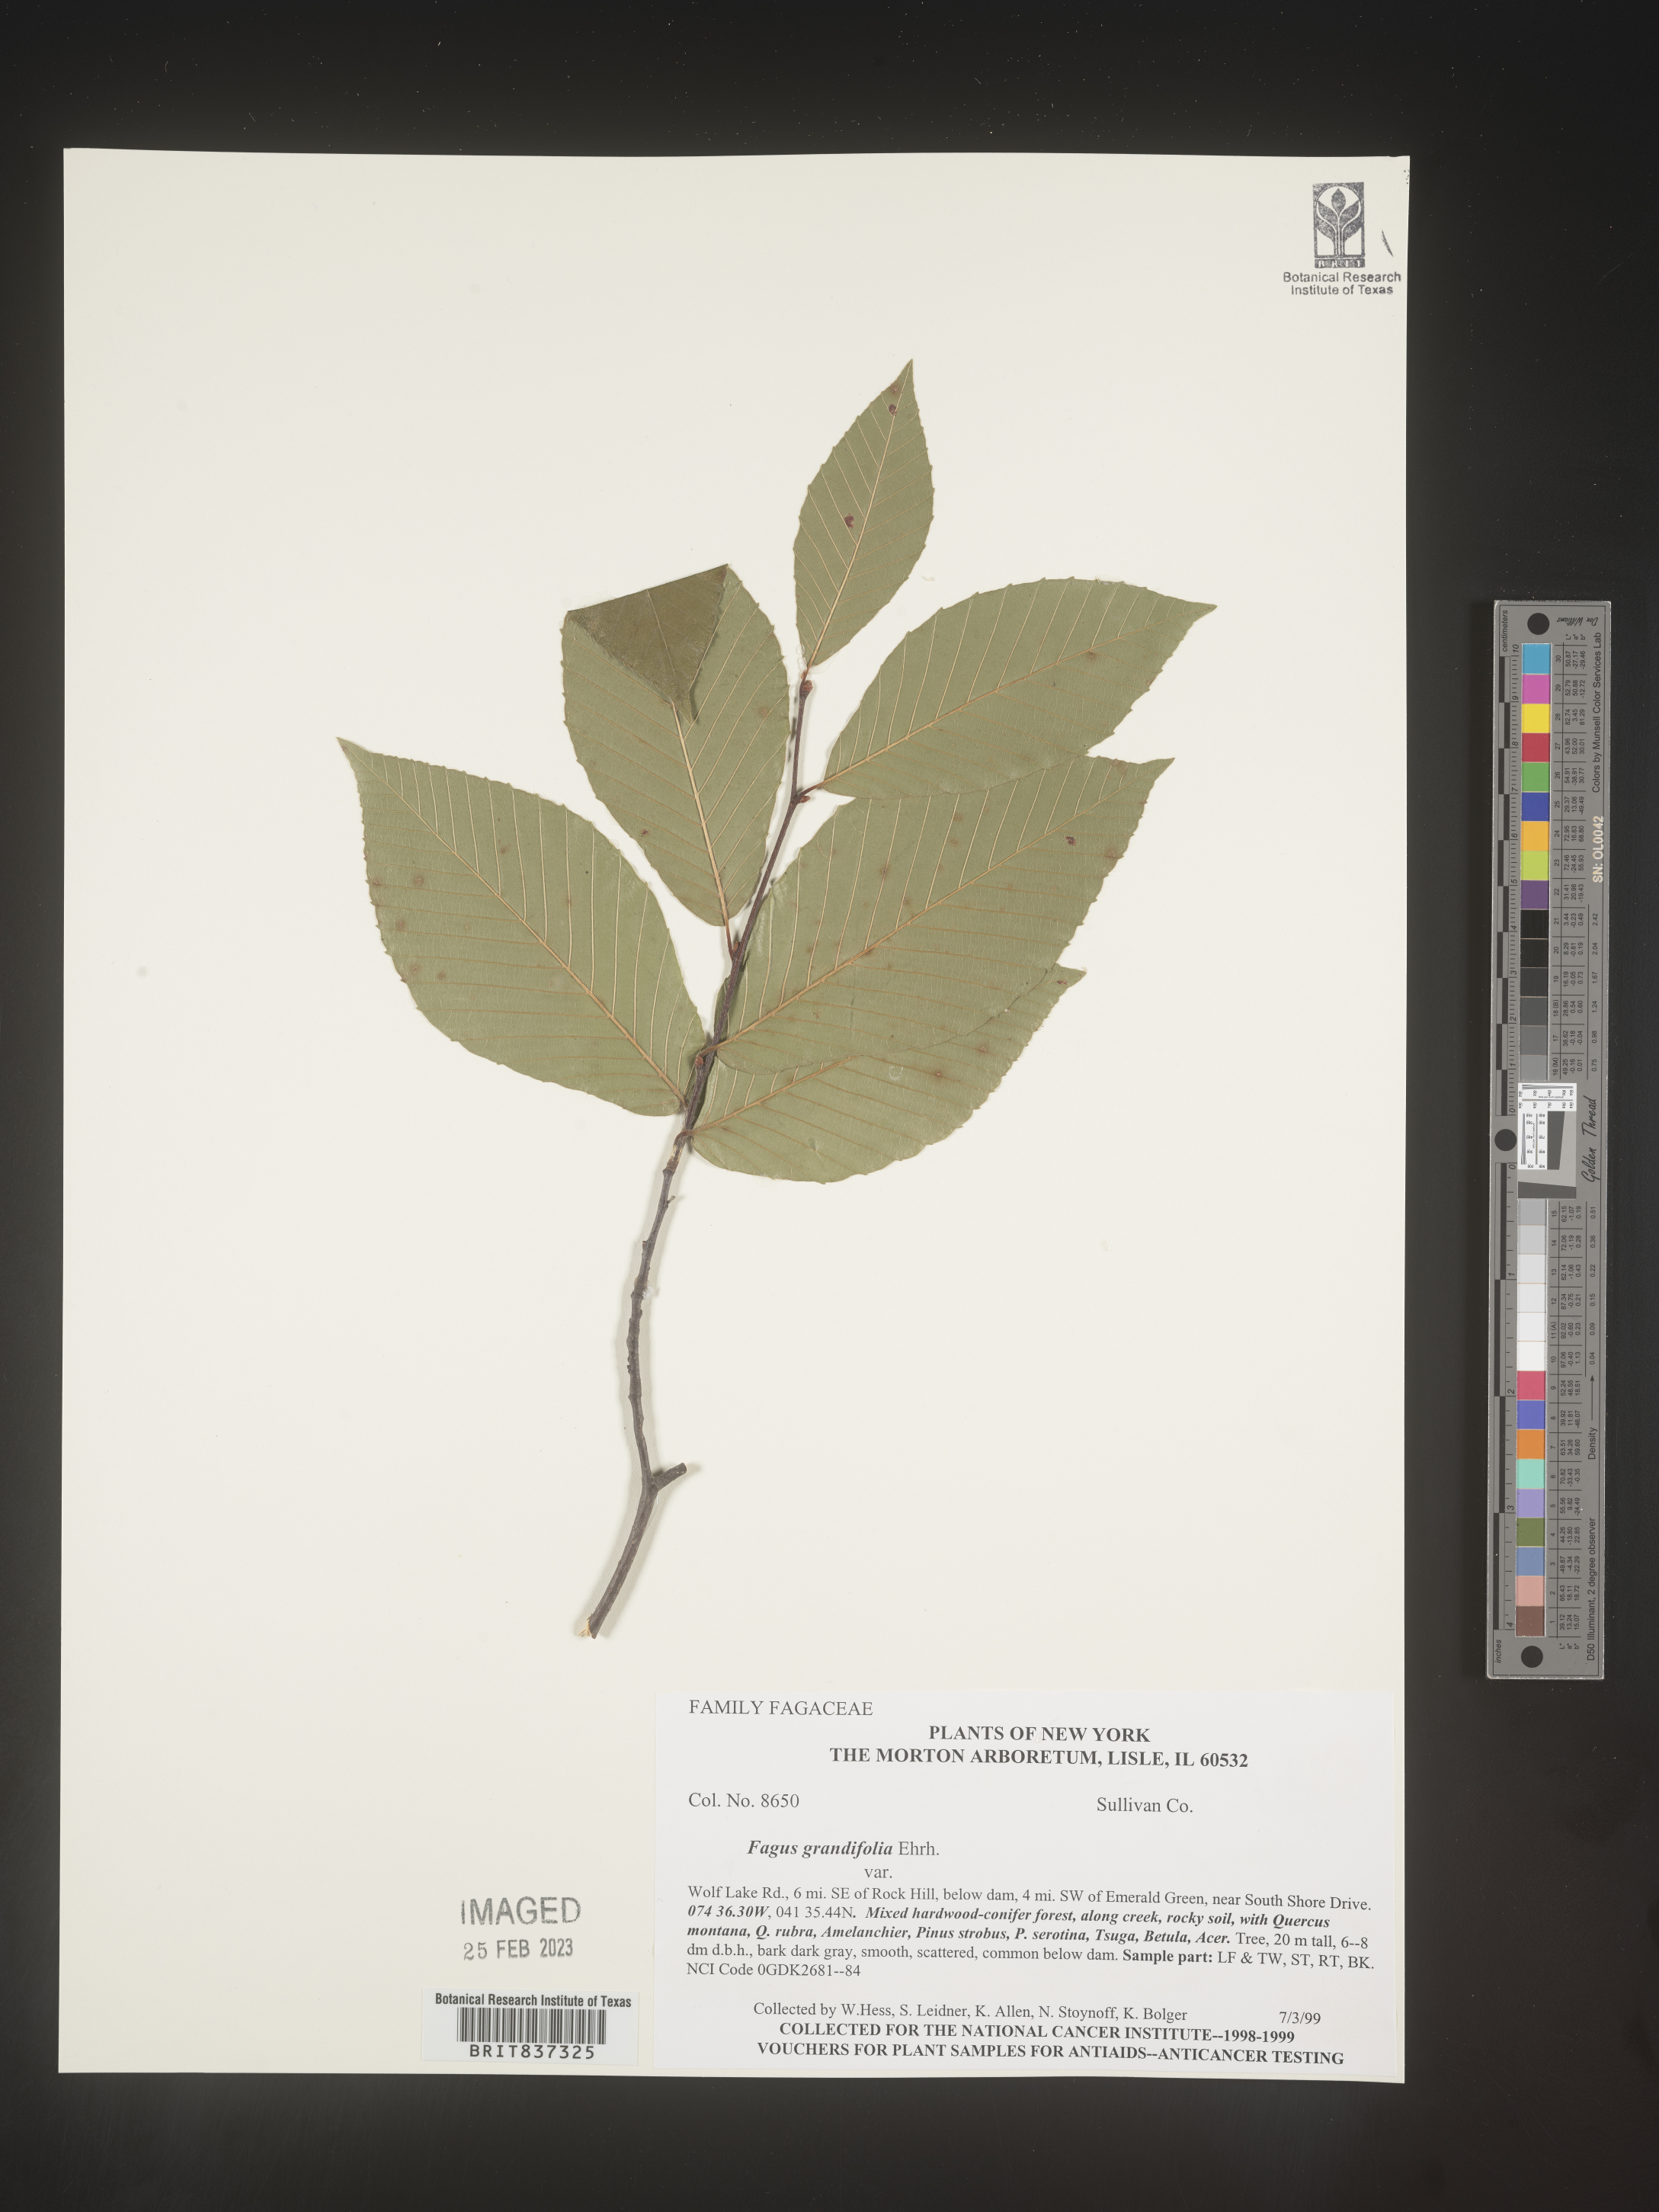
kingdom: Plantae
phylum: Tracheophyta
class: Magnoliopsida
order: Fagales
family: Fagaceae
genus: Fagus
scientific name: Fagus grandifolia
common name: American beech
